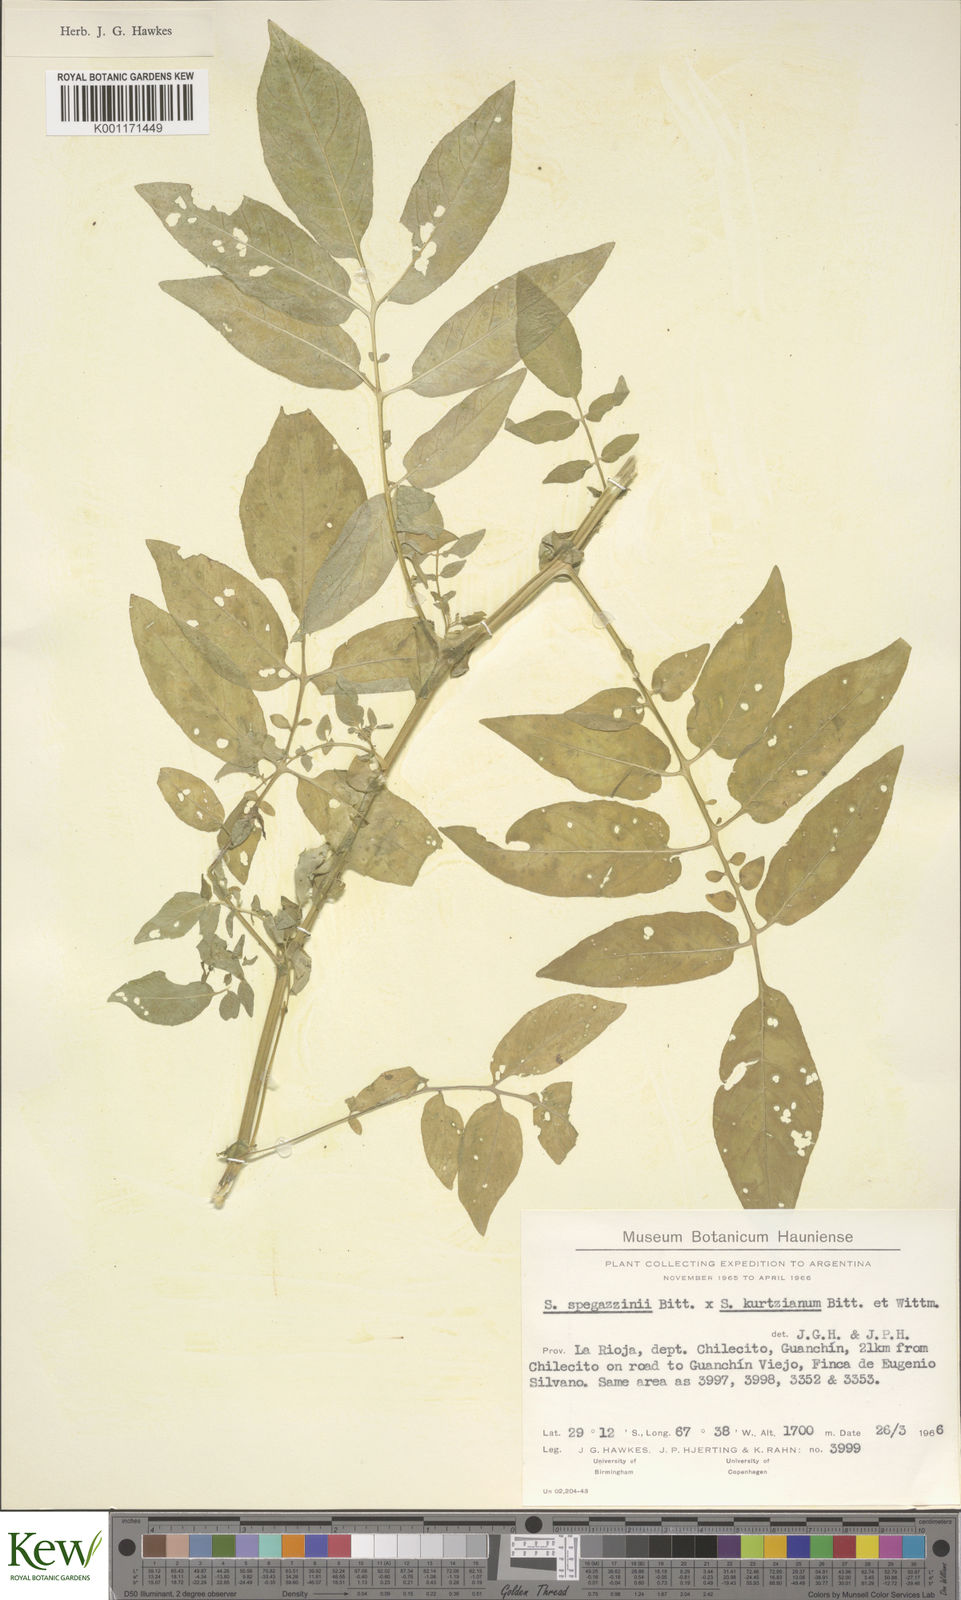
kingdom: Plantae
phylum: Tracheophyta
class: Magnoliopsida
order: Solanales
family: Solanaceae
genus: Solanum
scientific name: Solanum brevicaule
